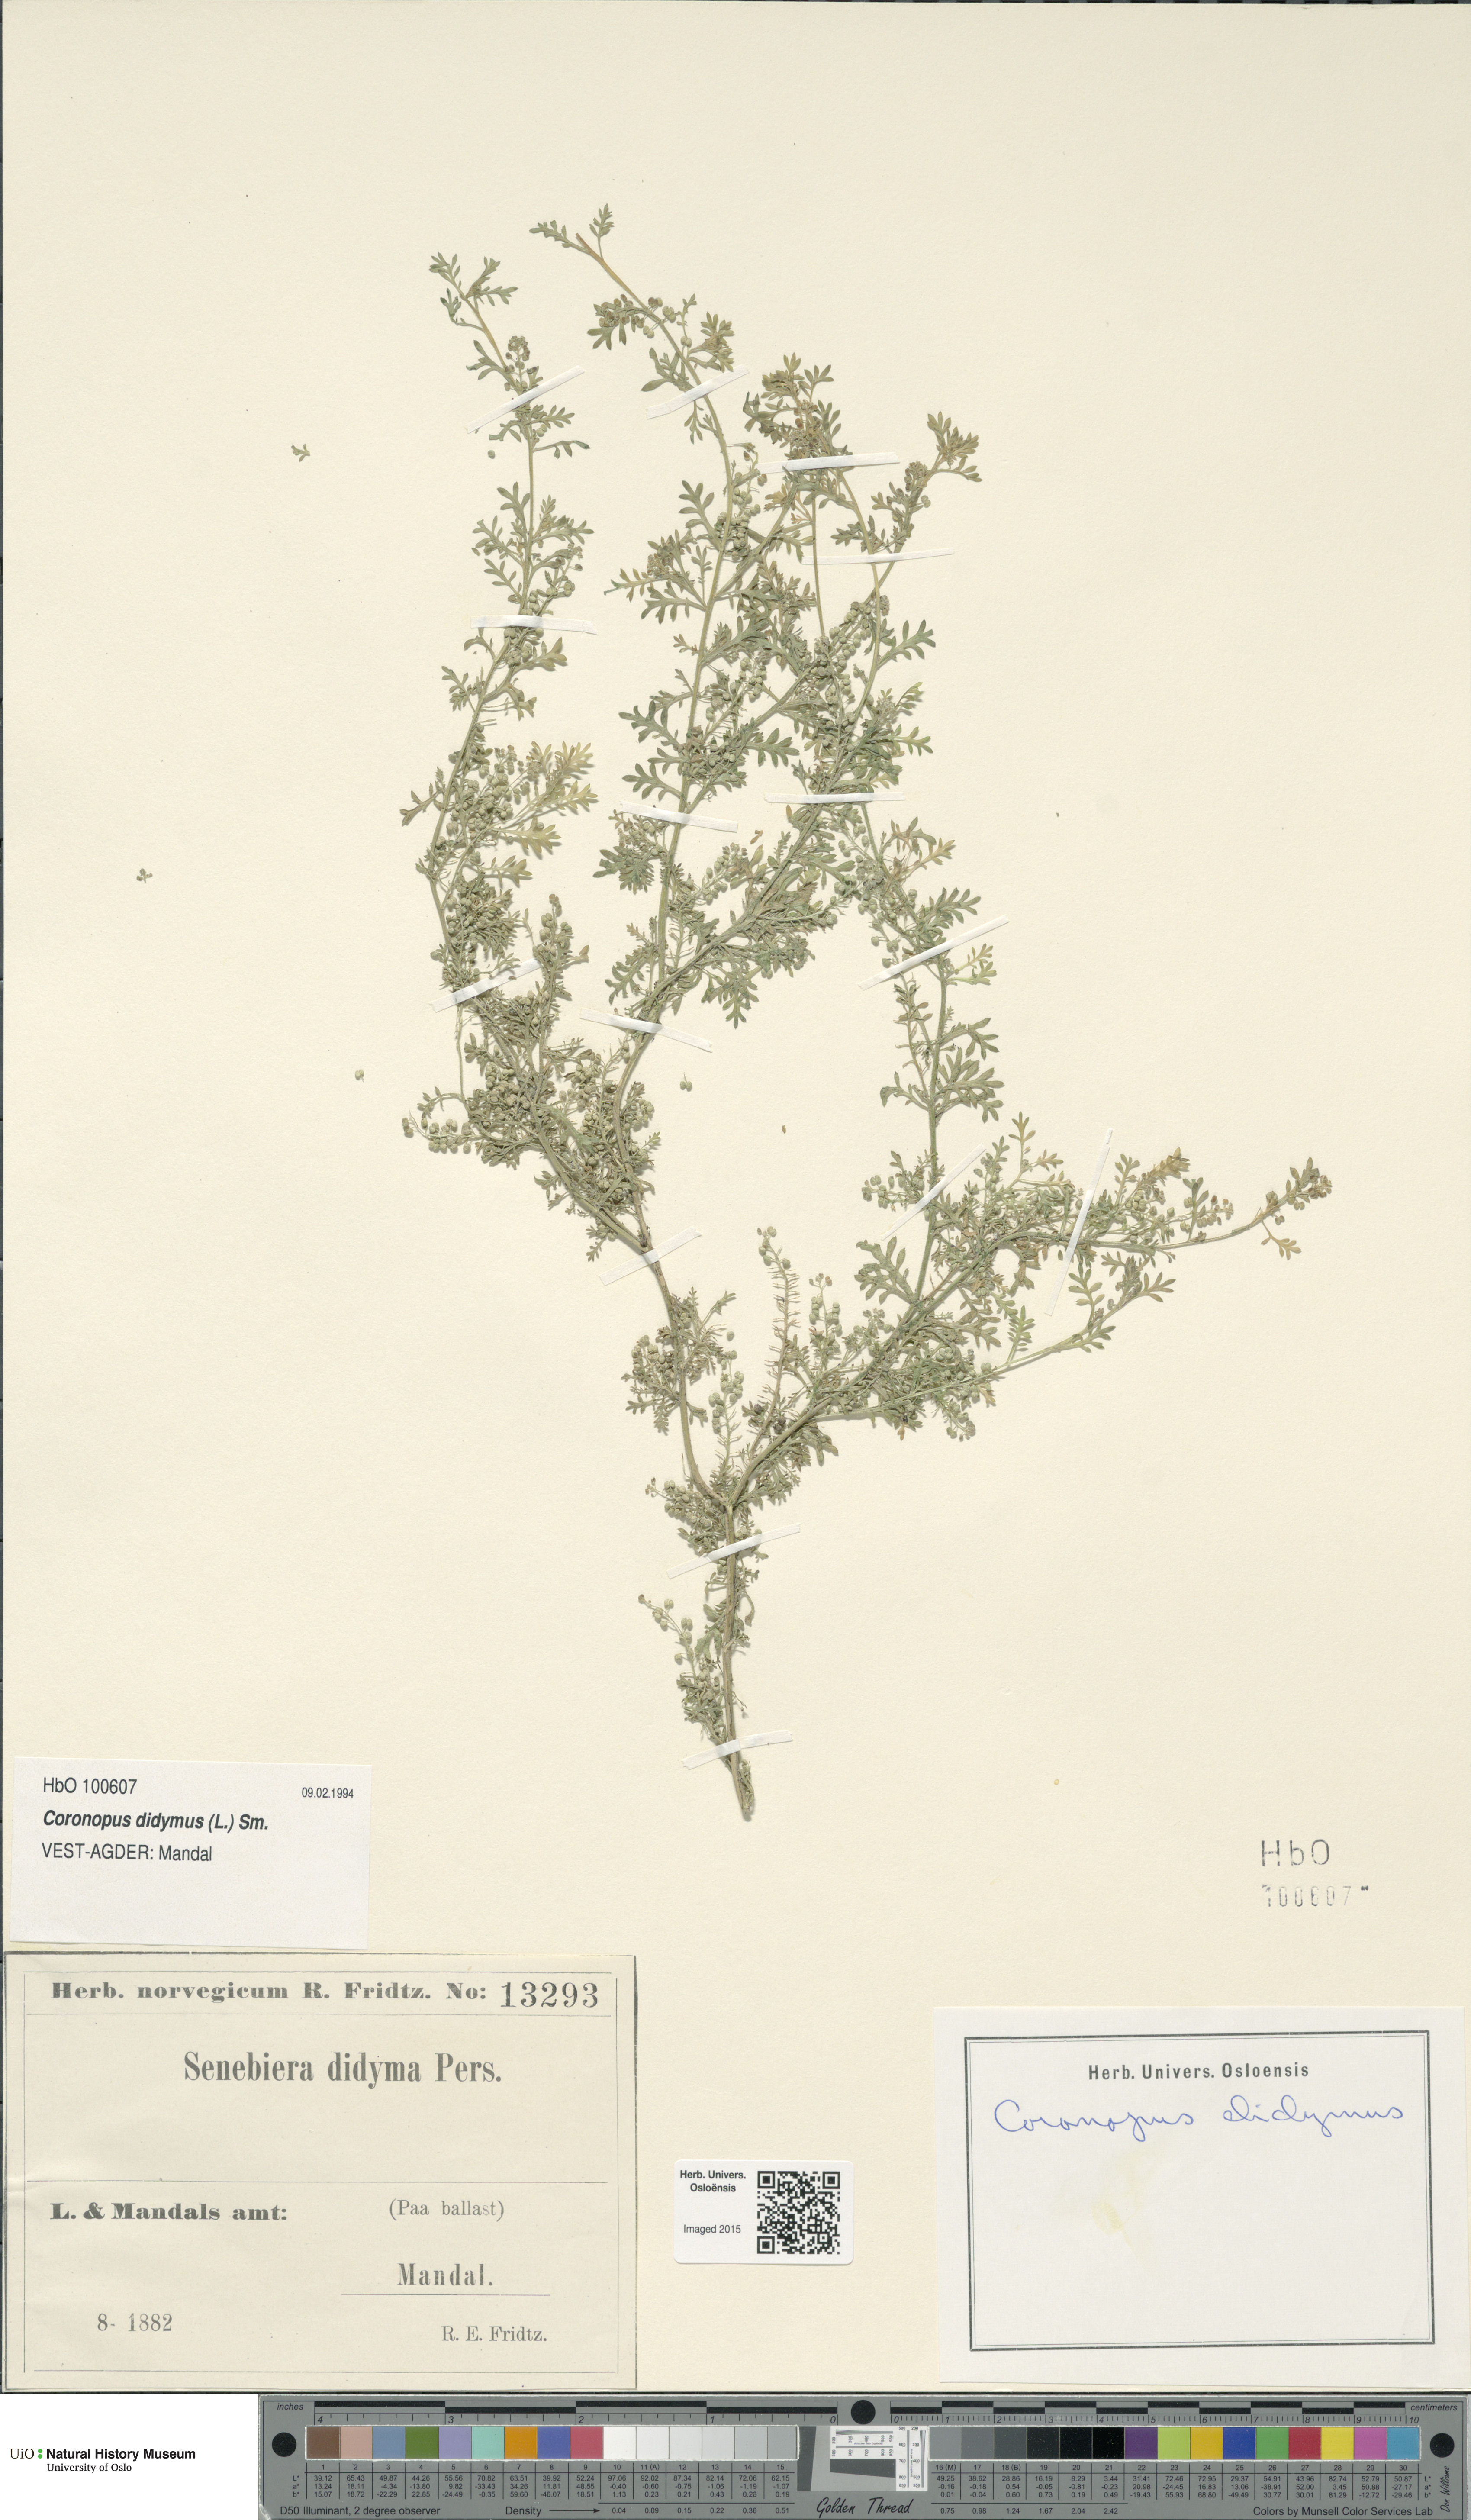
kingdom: Plantae
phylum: Tracheophyta
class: Magnoliopsida
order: Brassicales
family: Brassicaceae
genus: Lepidium
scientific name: Lepidium didymum
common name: Lesser swinecress
